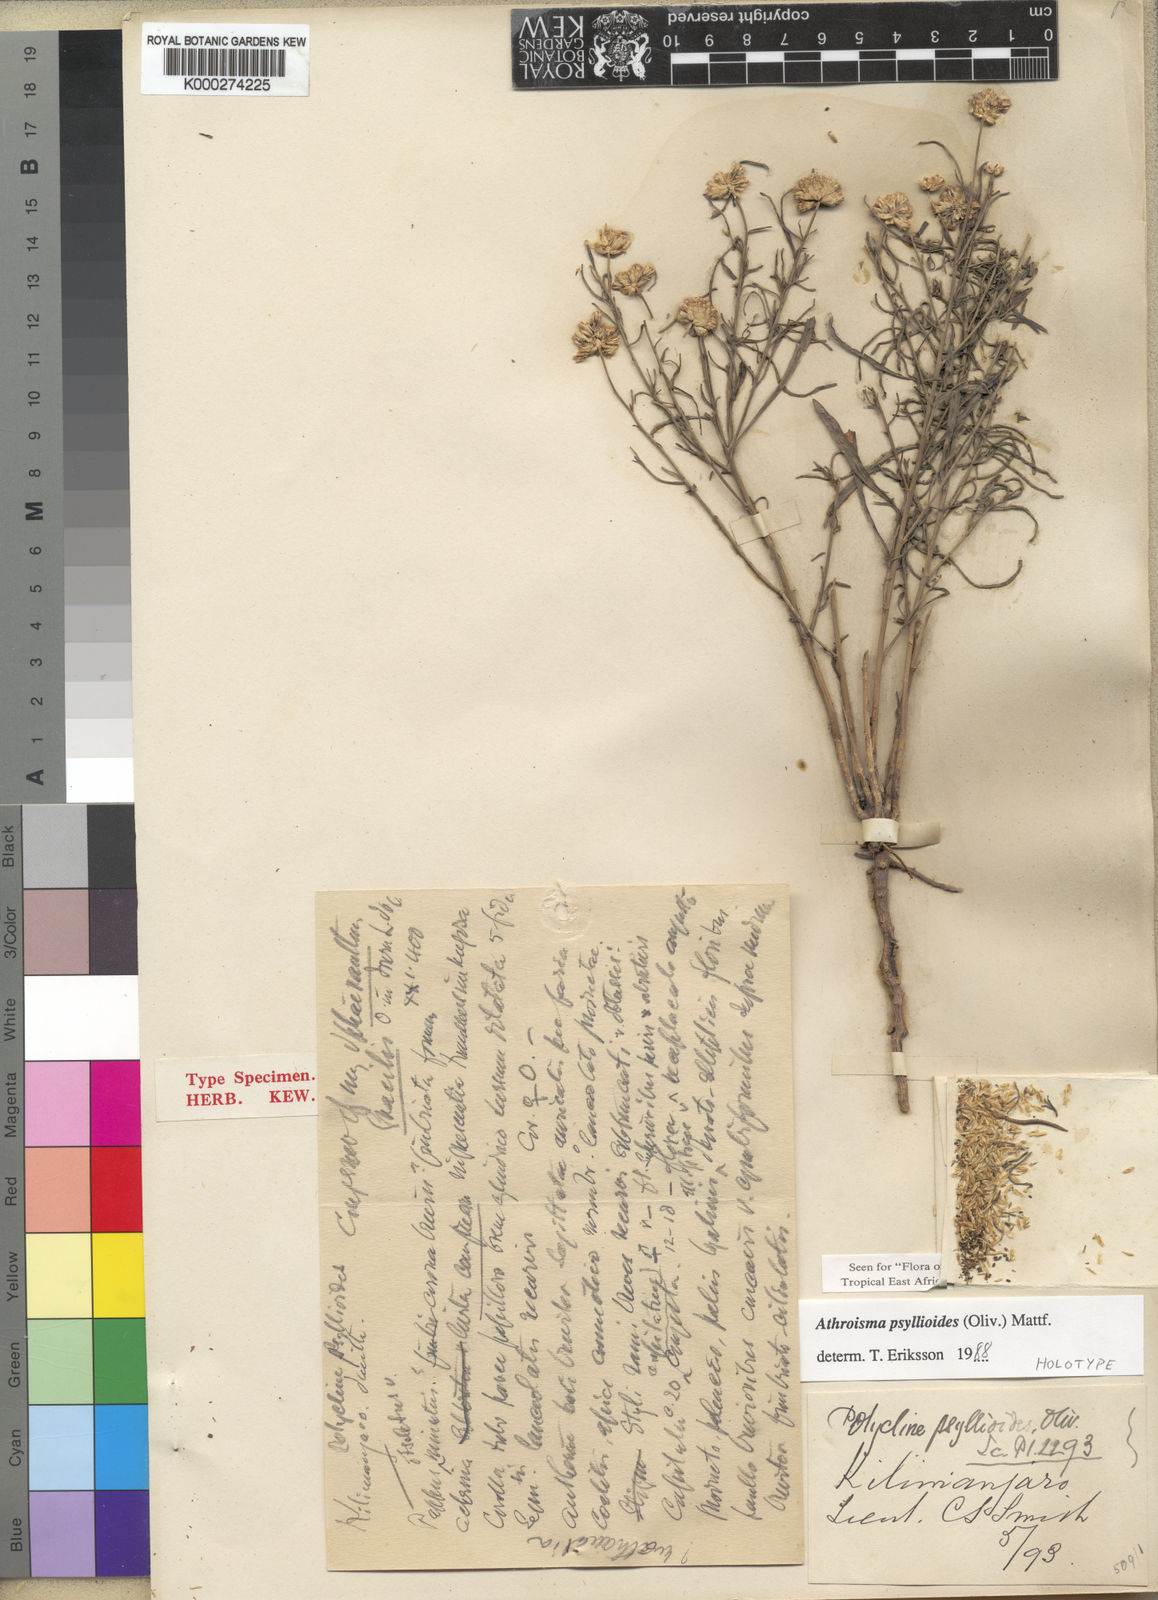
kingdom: Plantae
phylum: Tracheophyta
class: Magnoliopsida
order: Asterales
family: Asteraceae
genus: Athroisma
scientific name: Athroisma gracile
